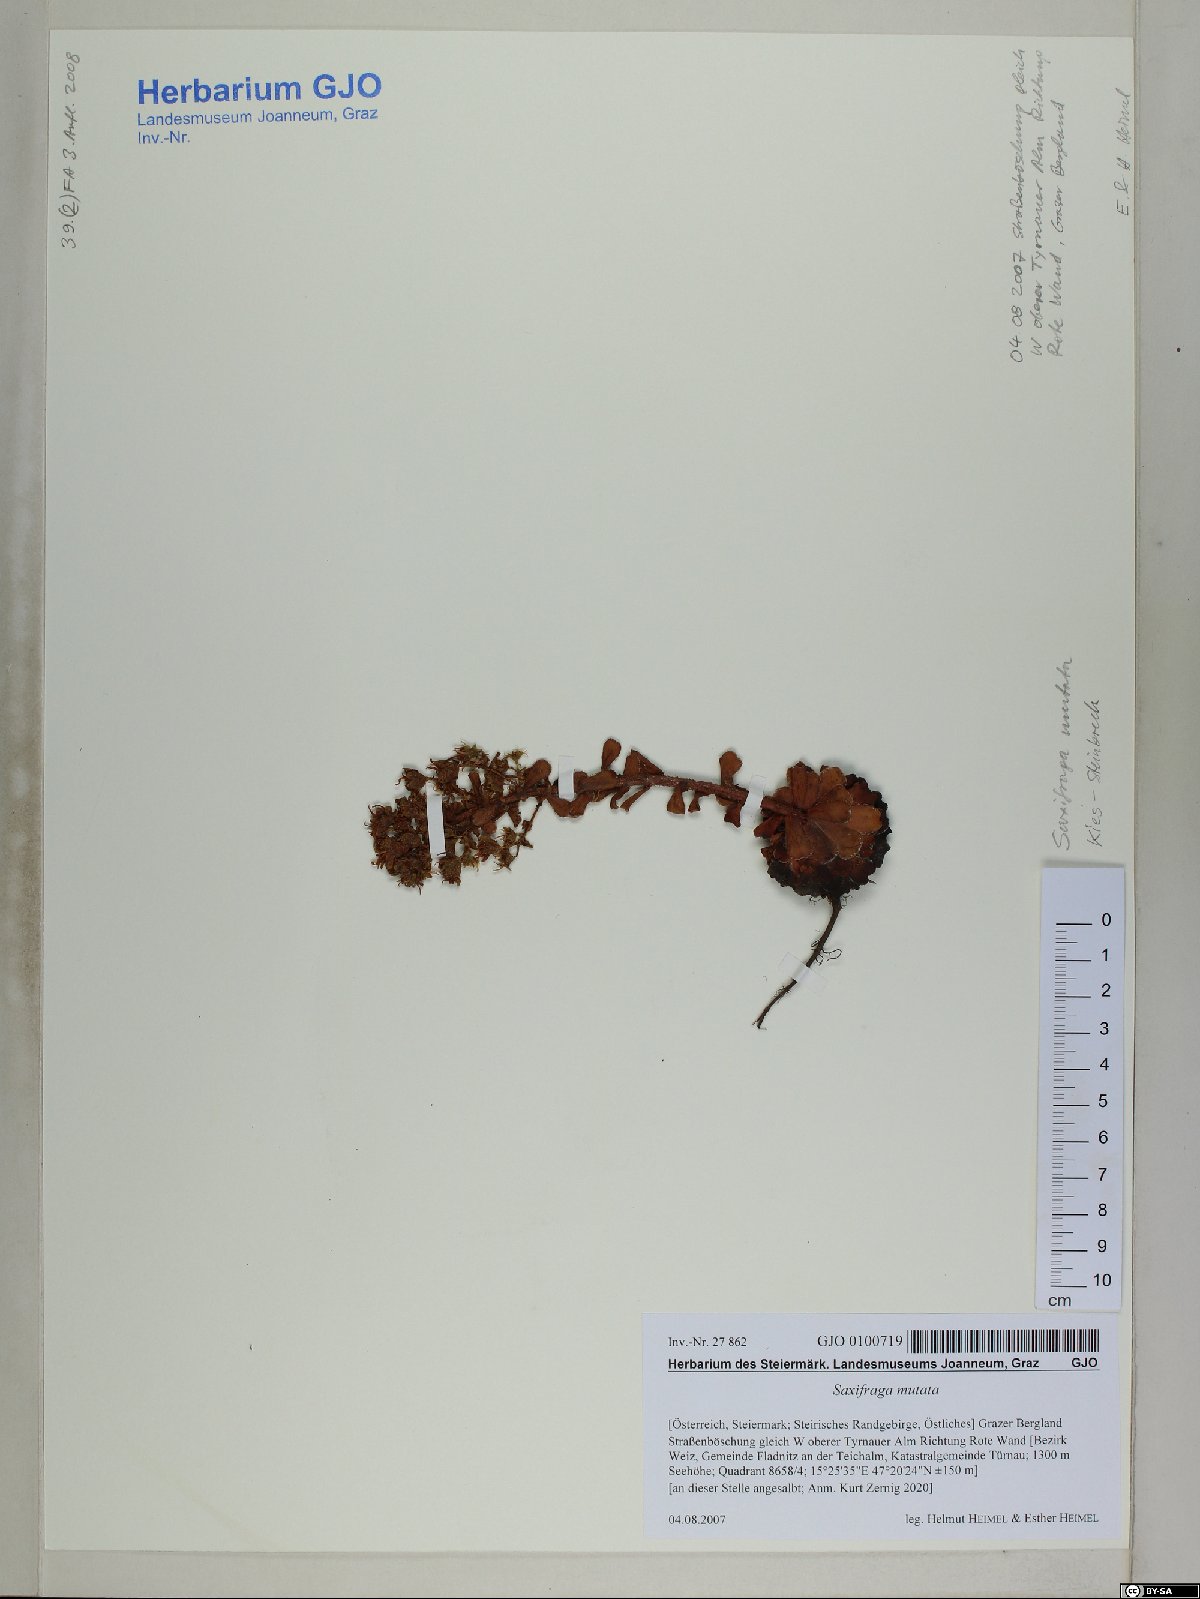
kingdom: Plantae
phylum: Tracheophyta
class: Magnoliopsida
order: Saxifragales
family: Saxifragaceae
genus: Saxifraga
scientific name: Saxifraga mutata
